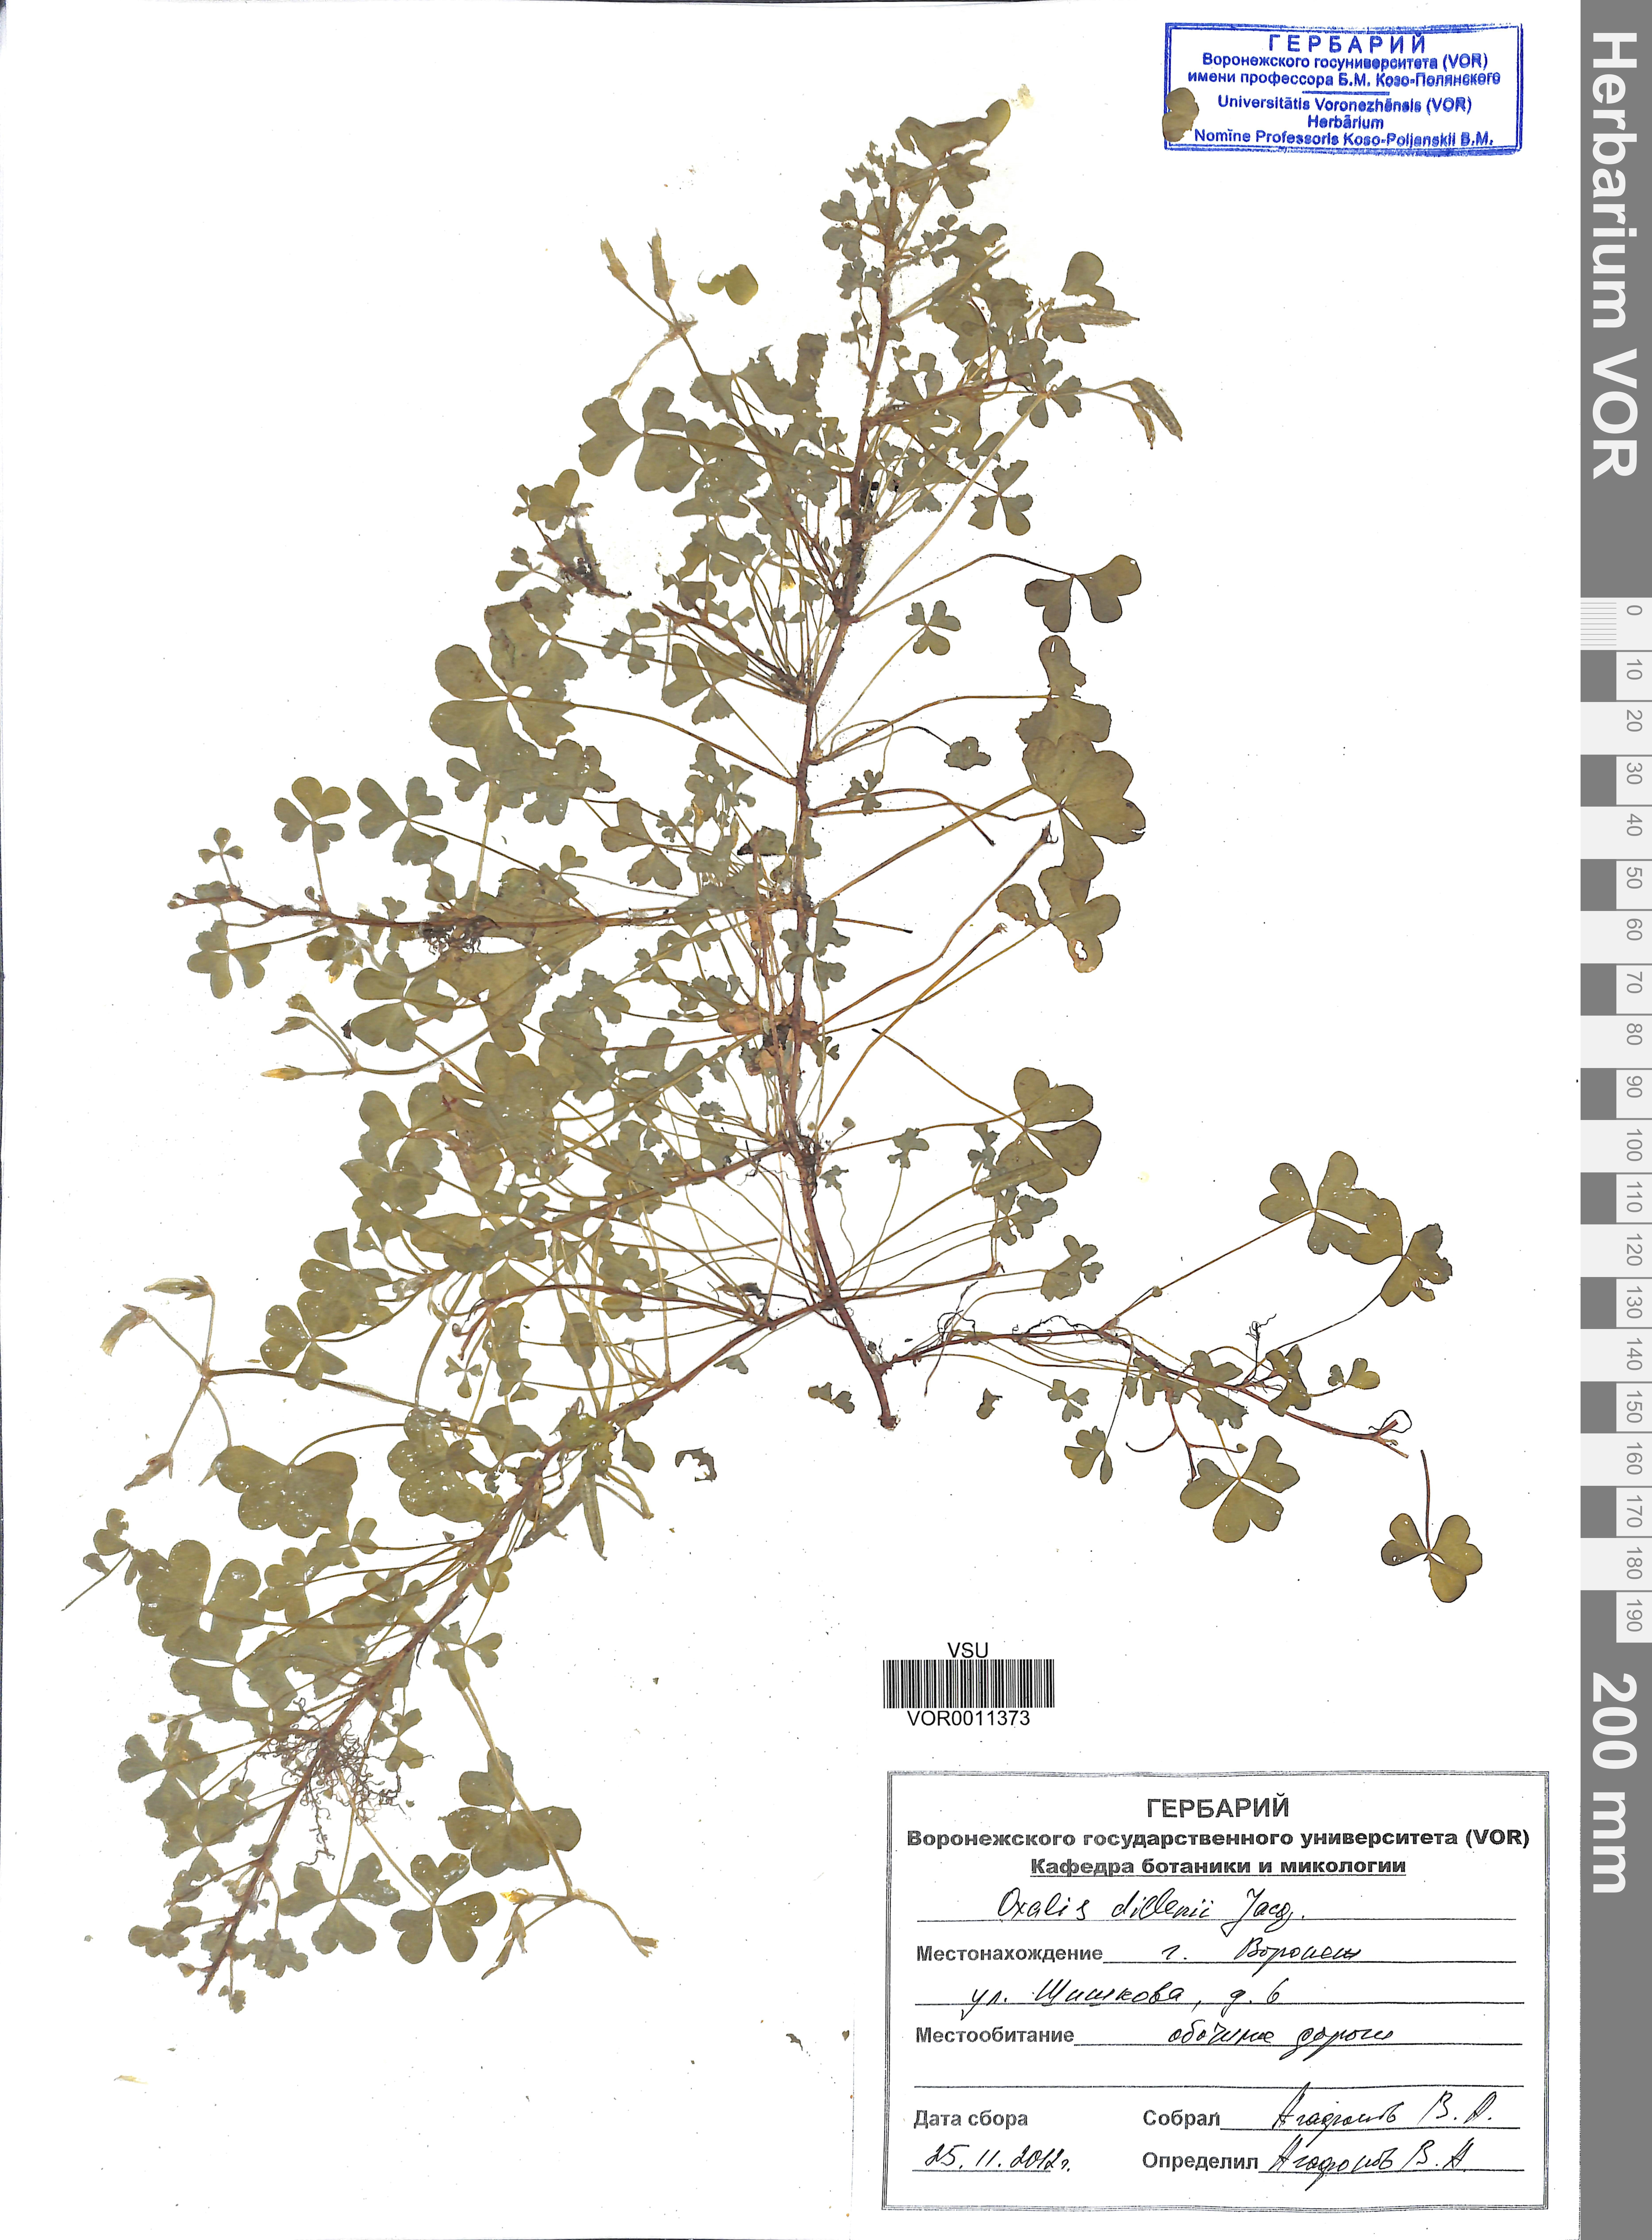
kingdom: Plantae
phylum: Tracheophyta
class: Magnoliopsida
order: Oxalidales
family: Oxalidaceae
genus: Oxalis
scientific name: Oxalis dillenii
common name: Sussex yellow-sorrel
